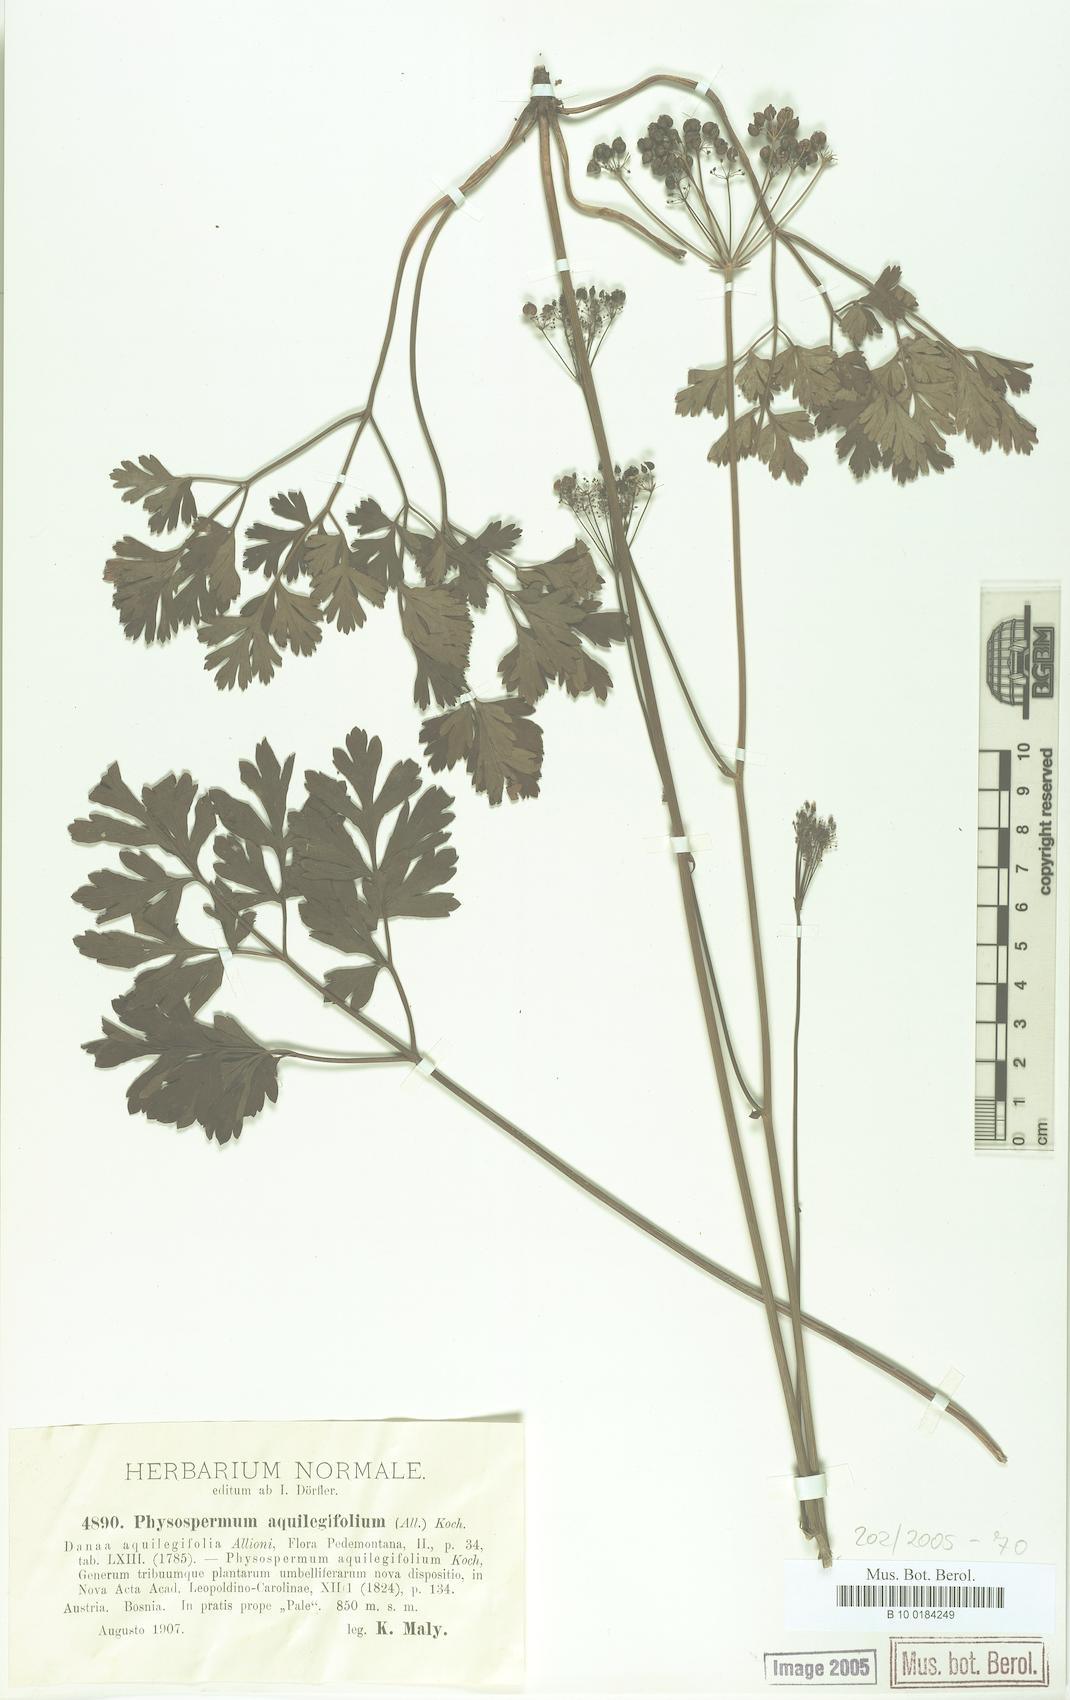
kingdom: Plantae
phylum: Tracheophyta
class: Magnoliopsida
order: Apiales
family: Apiaceae
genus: Physospermum
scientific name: Physospermum cornubiense
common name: Bladderseed
